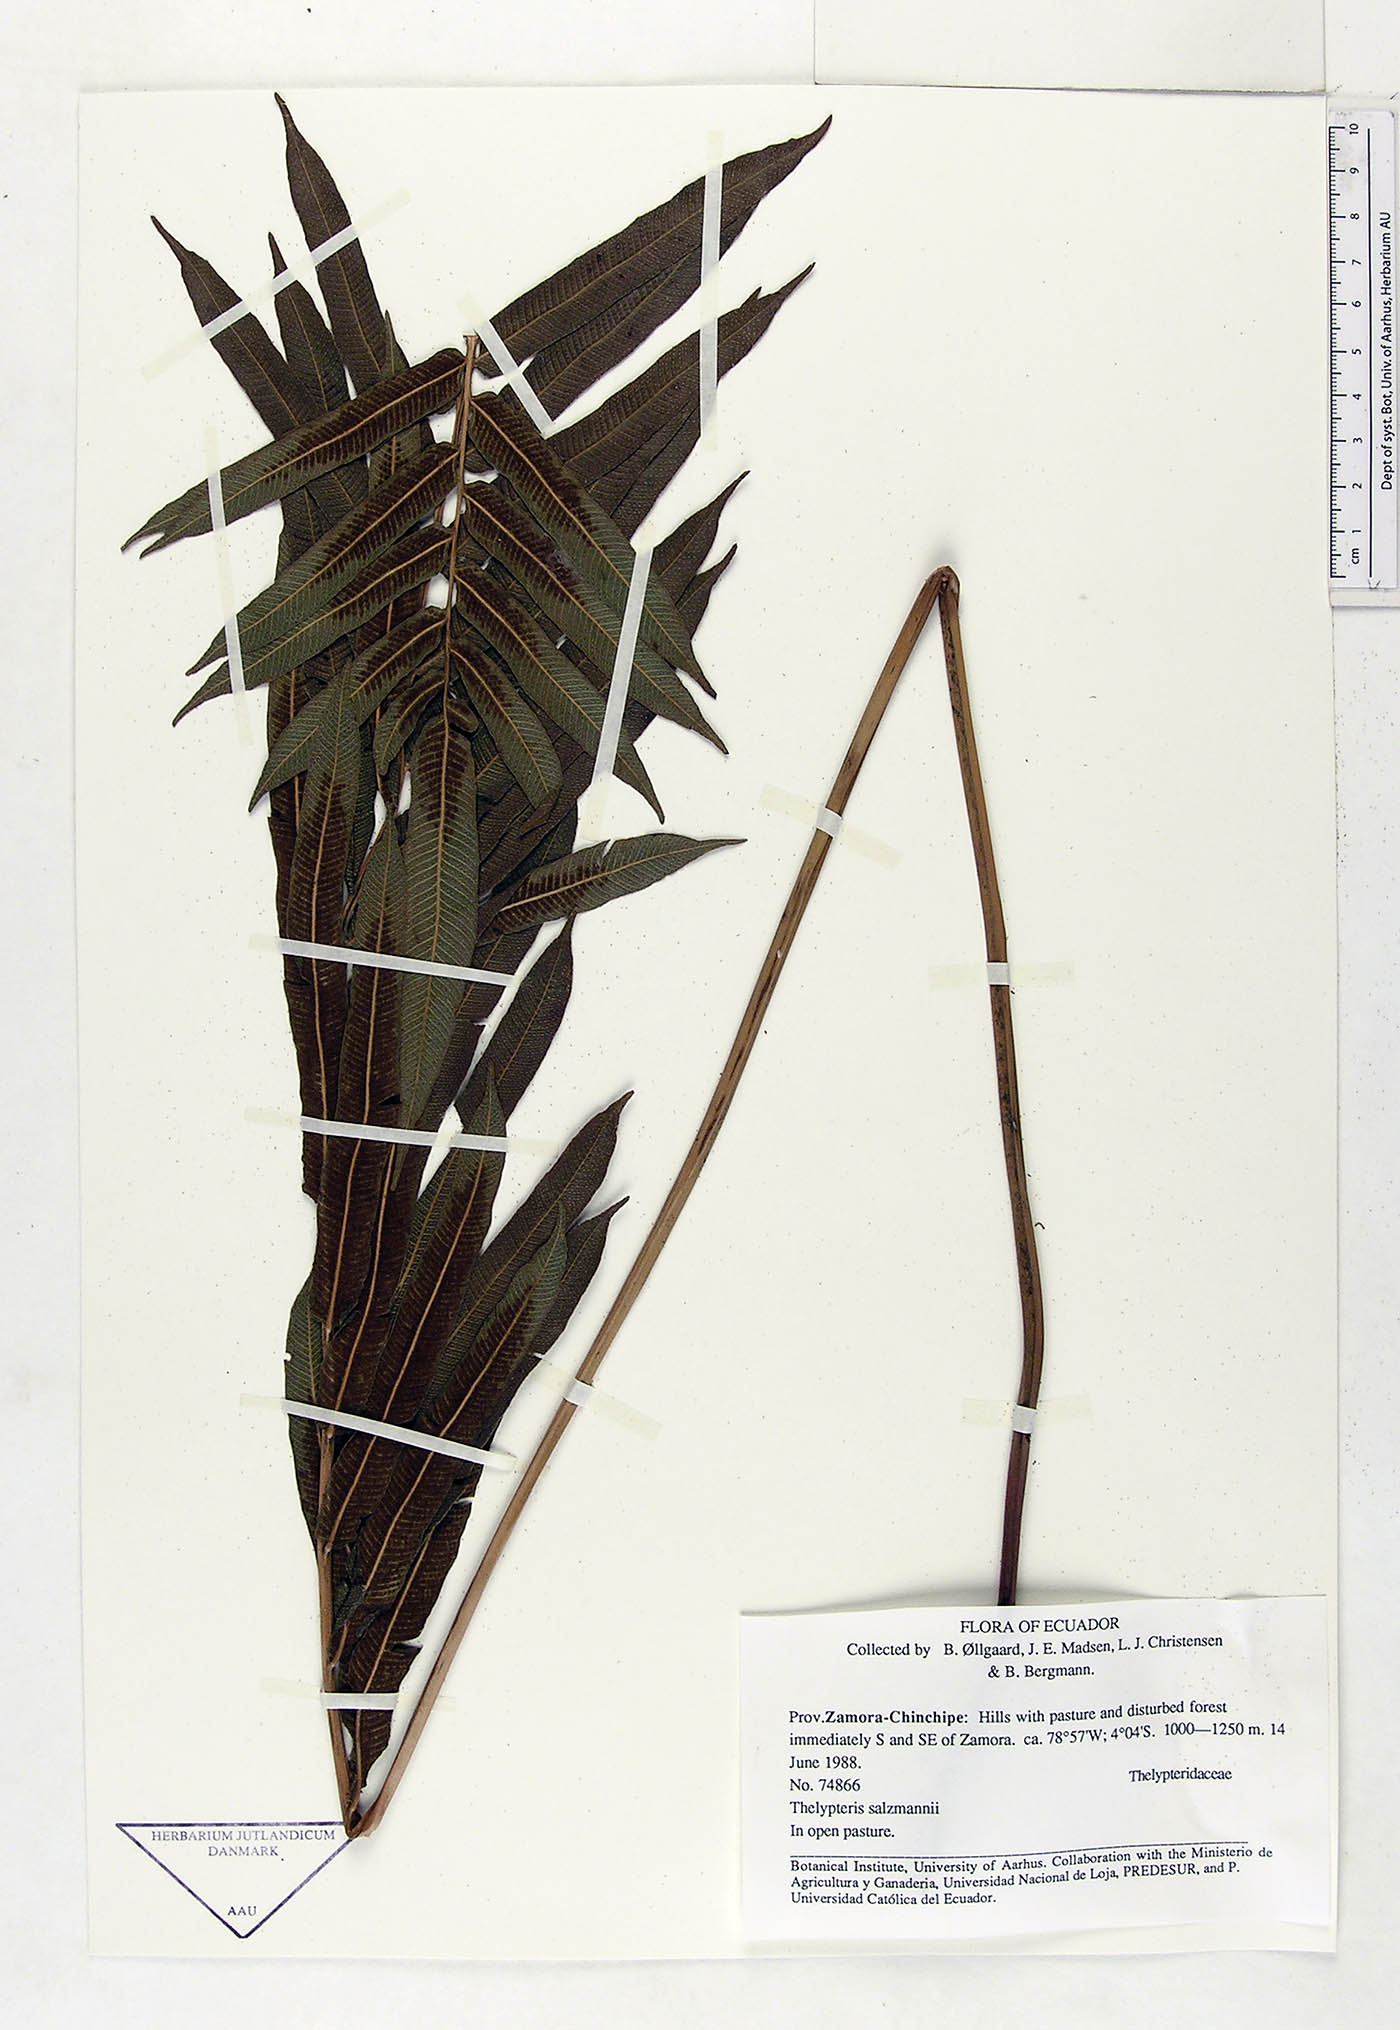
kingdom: Plantae
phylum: Tracheophyta
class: Polypodiopsida
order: Polypodiales
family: Thelypteridaceae
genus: Meniscium
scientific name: Meniscium arborescens
